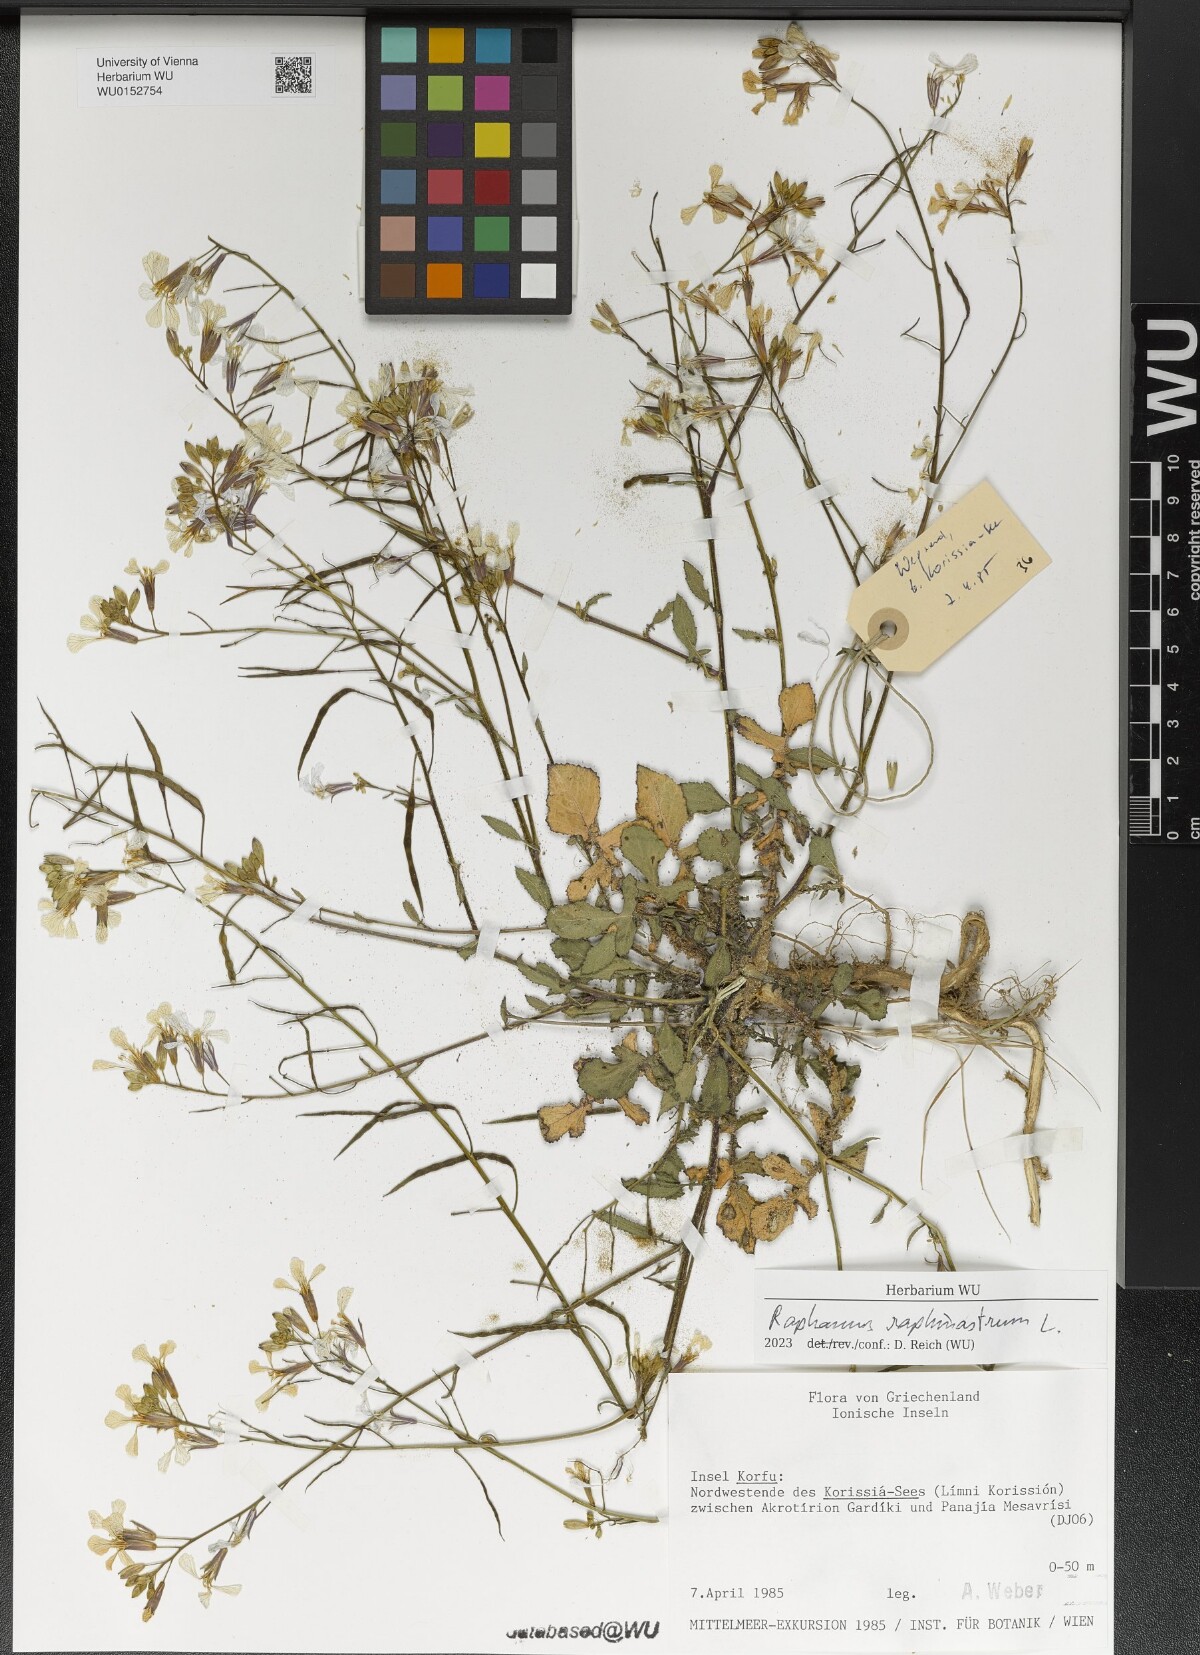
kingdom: Plantae
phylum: Tracheophyta
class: Magnoliopsida
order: Brassicales
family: Brassicaceae
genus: Raphanus
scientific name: Raphanus raphanistrum
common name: Wild radish
